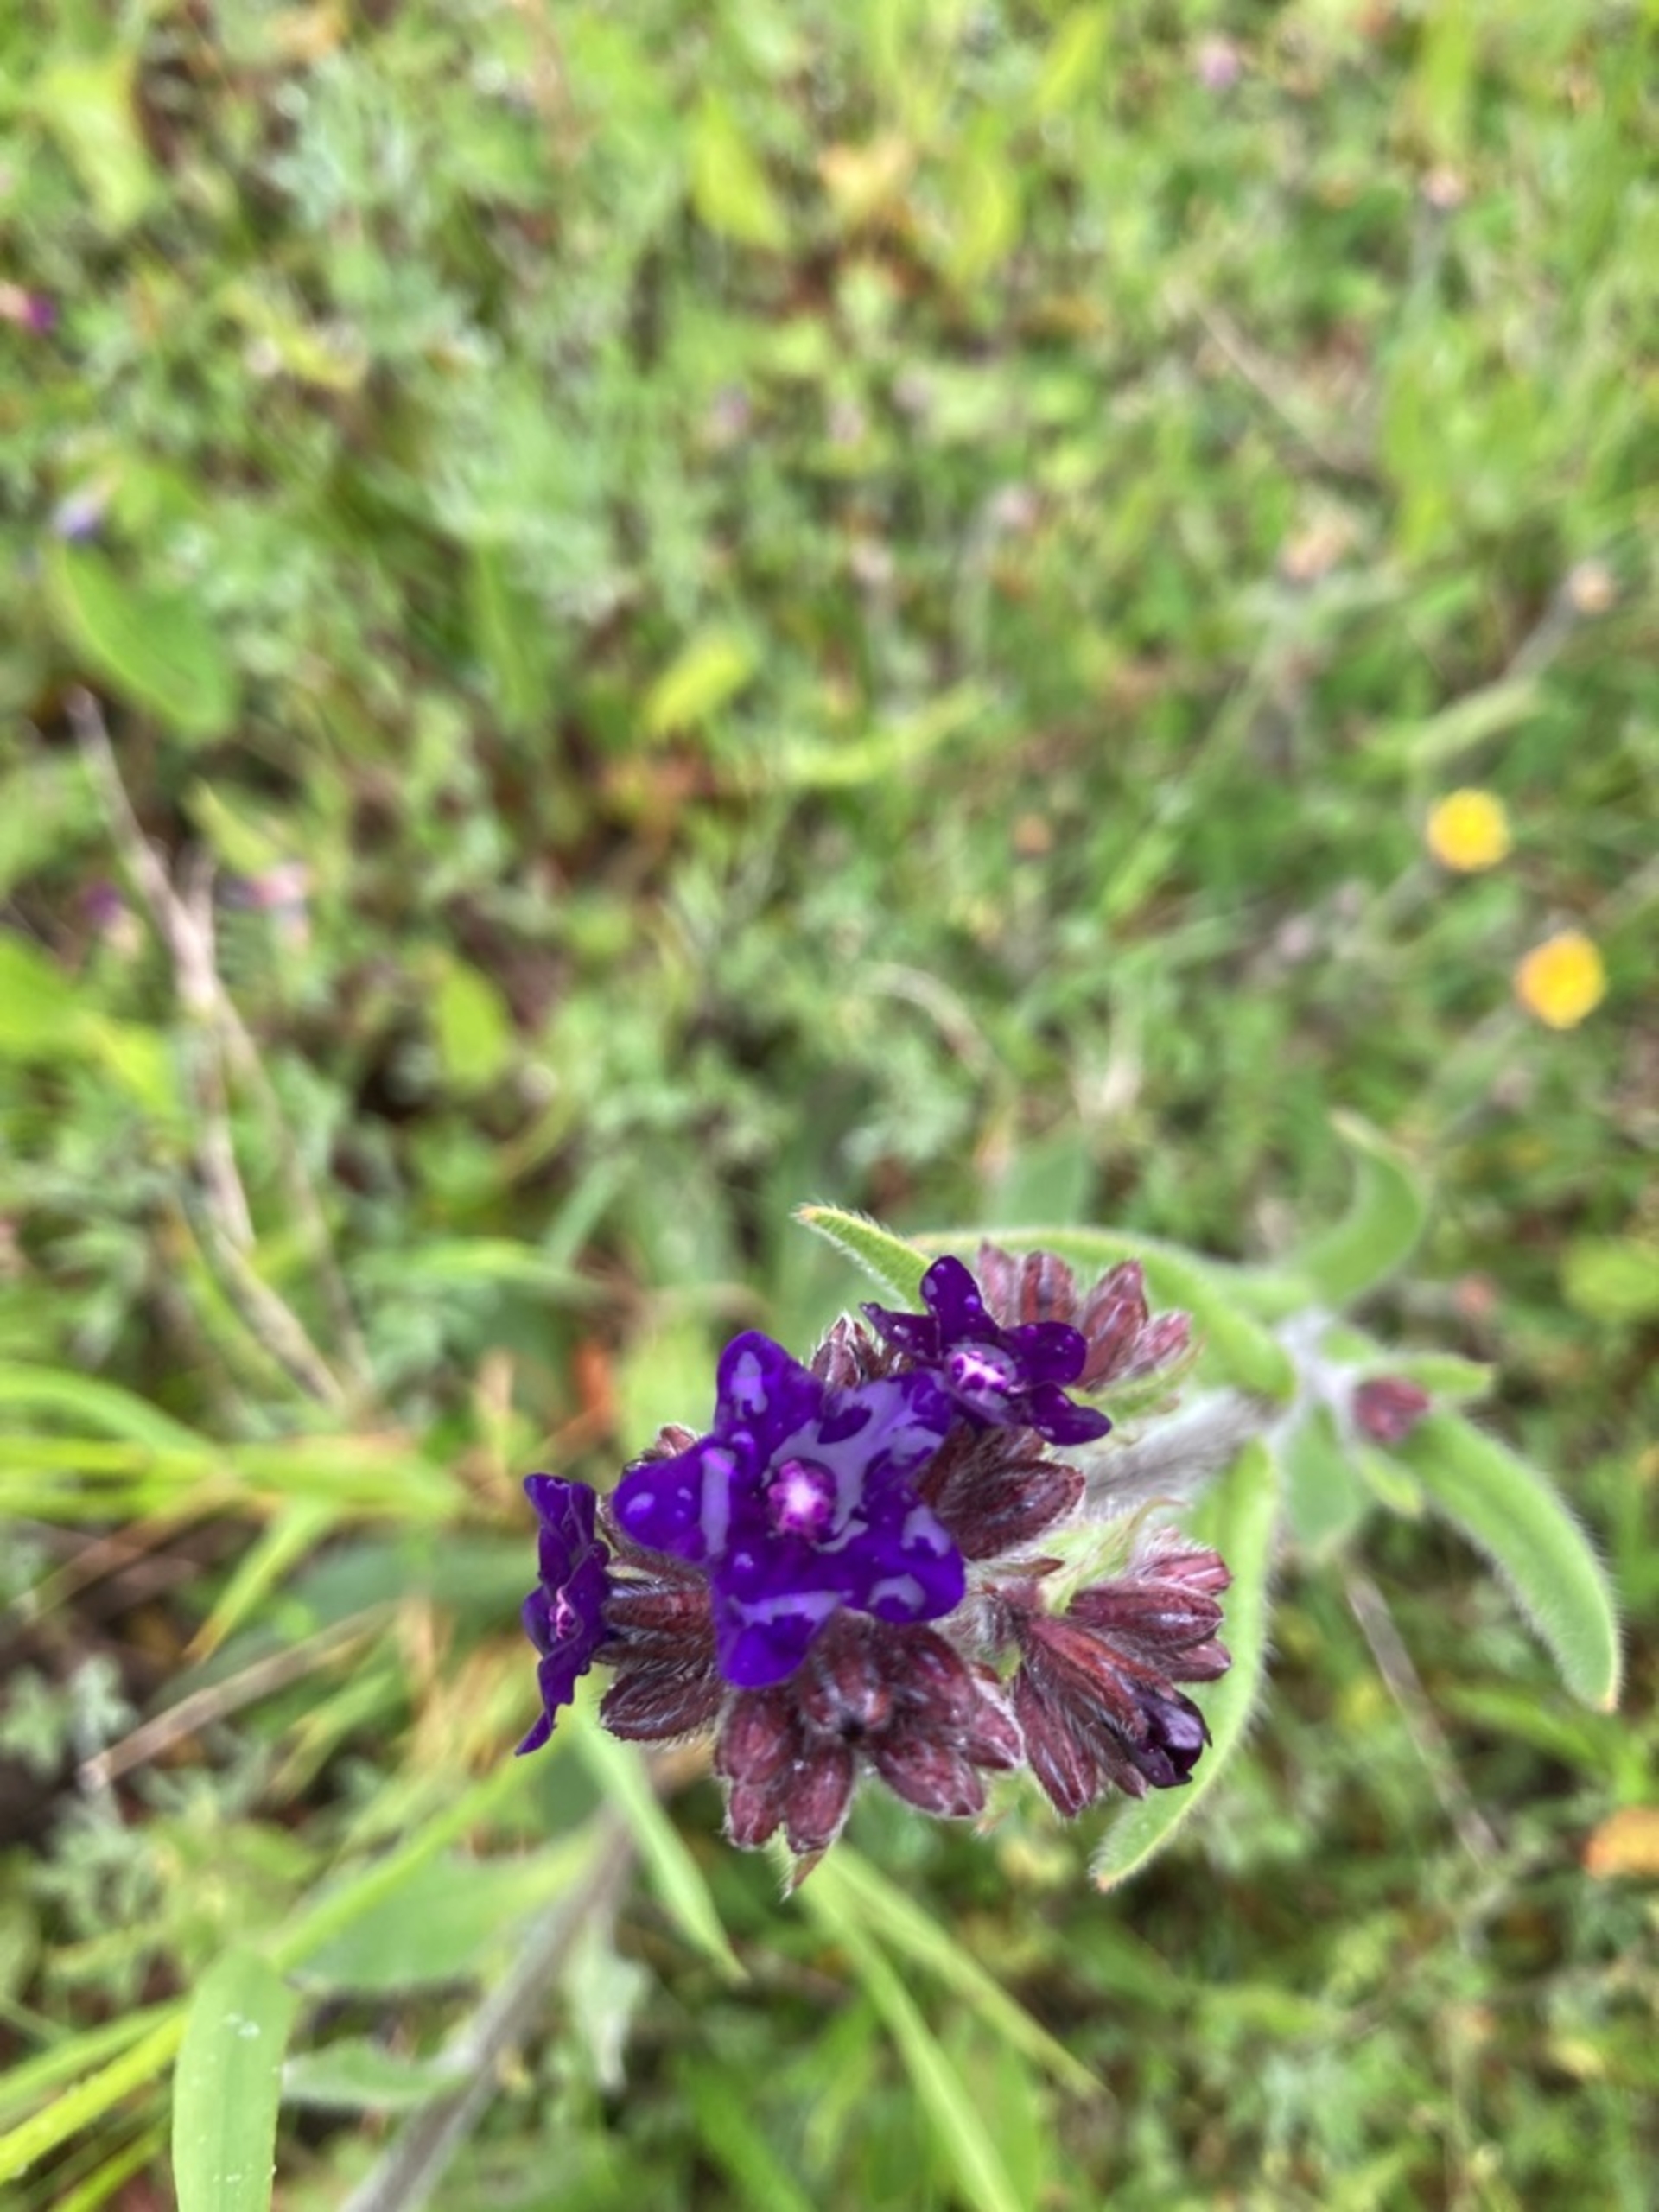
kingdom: Plantae
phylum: Tracheophyta
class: Magnoliopsida
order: Boraginales
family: Boraginaceae
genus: Anchusa
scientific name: Anchusa officinalis
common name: Læge-oksetunge
